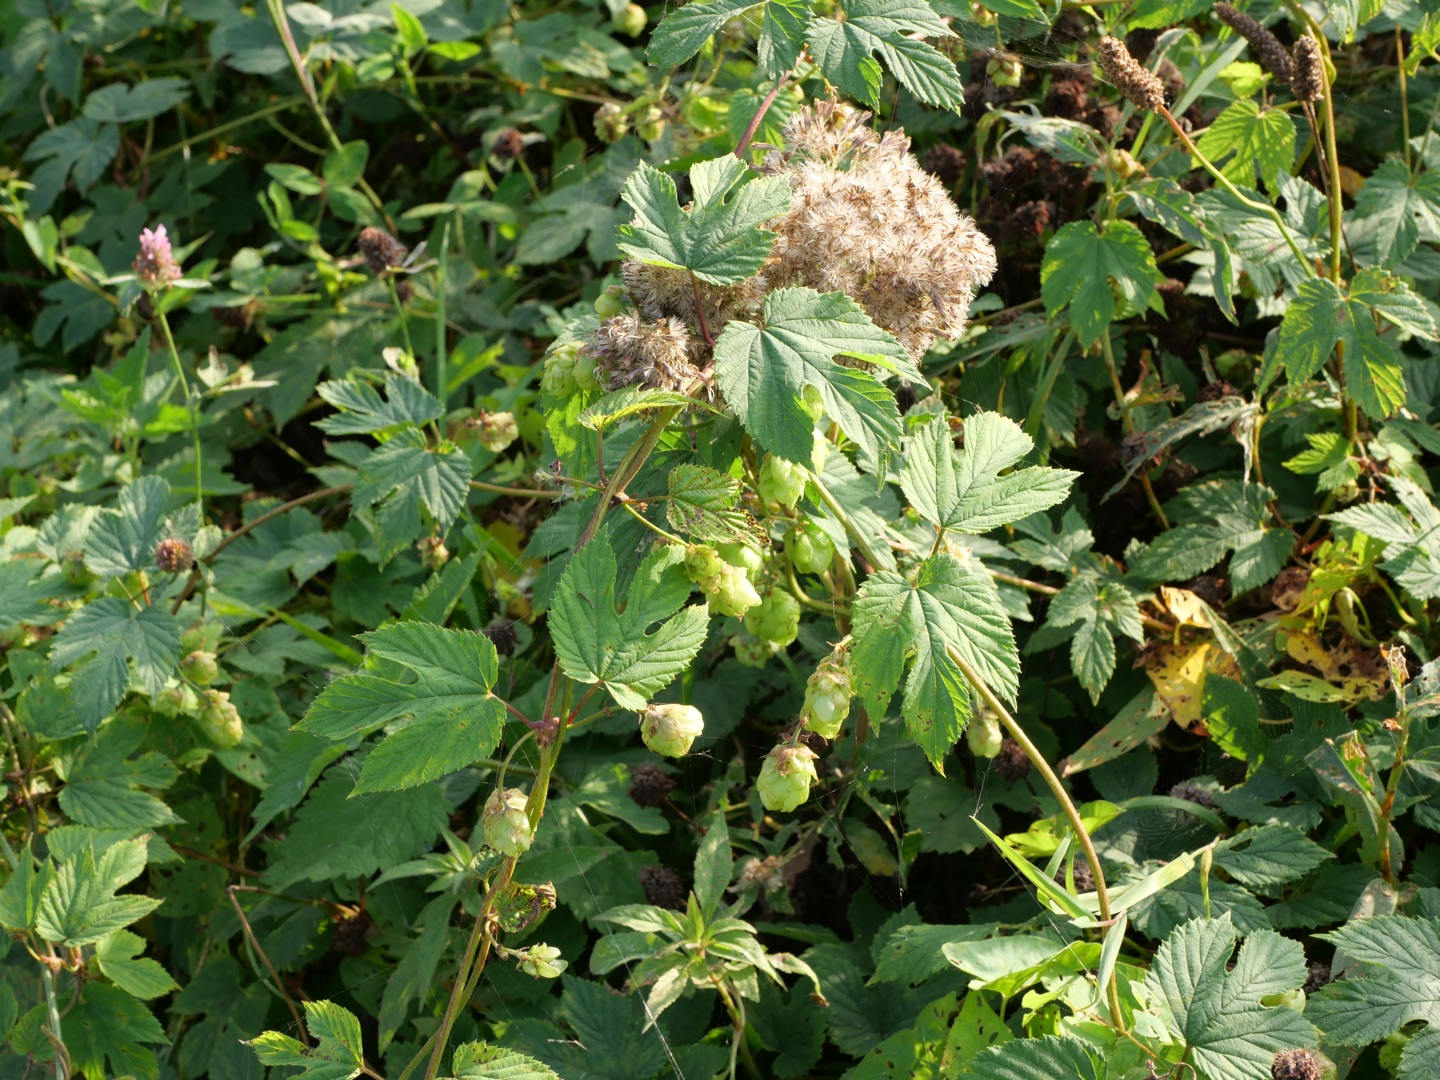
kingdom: Plantae
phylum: Tracheophyta
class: Magnoliopsida
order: Rosales
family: Cannabaceae
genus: Humulus
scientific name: Humulus lupulus
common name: Humle
